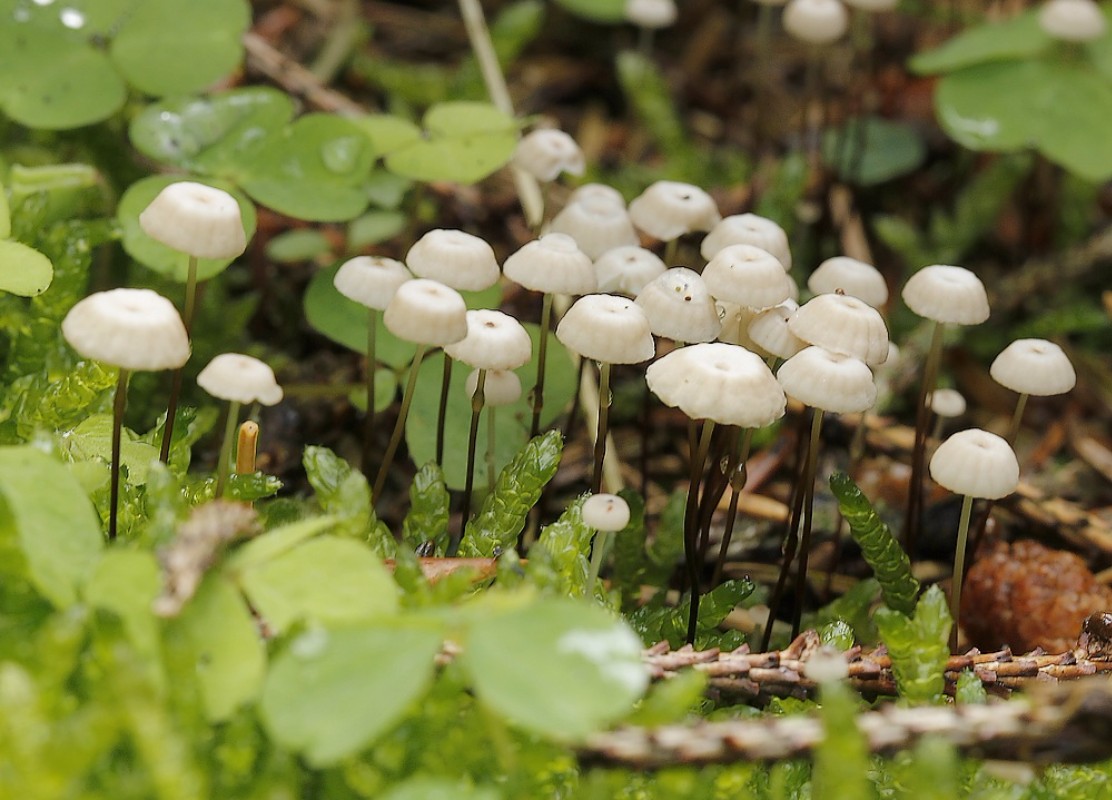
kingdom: Fungi
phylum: Basidiomycota
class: Agaricomycetes
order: Agaricales
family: Marasmiaceae
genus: Marasmius
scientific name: Marasmius rotula
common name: hjul-bruskhat
